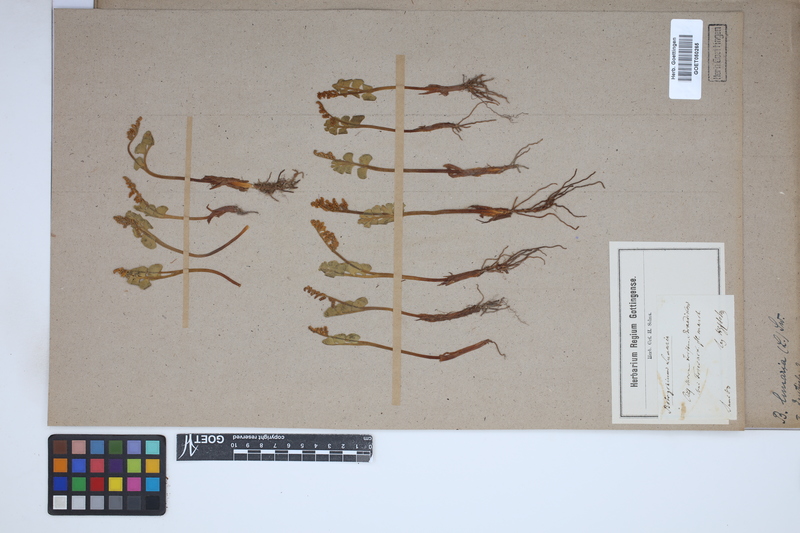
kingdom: Plantae
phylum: Tracheophyta
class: Polypodiopsida
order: Ophioglossales
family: Ophioglossaceae
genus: Botrychium
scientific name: Botrychium lunaria
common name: Moonwort
